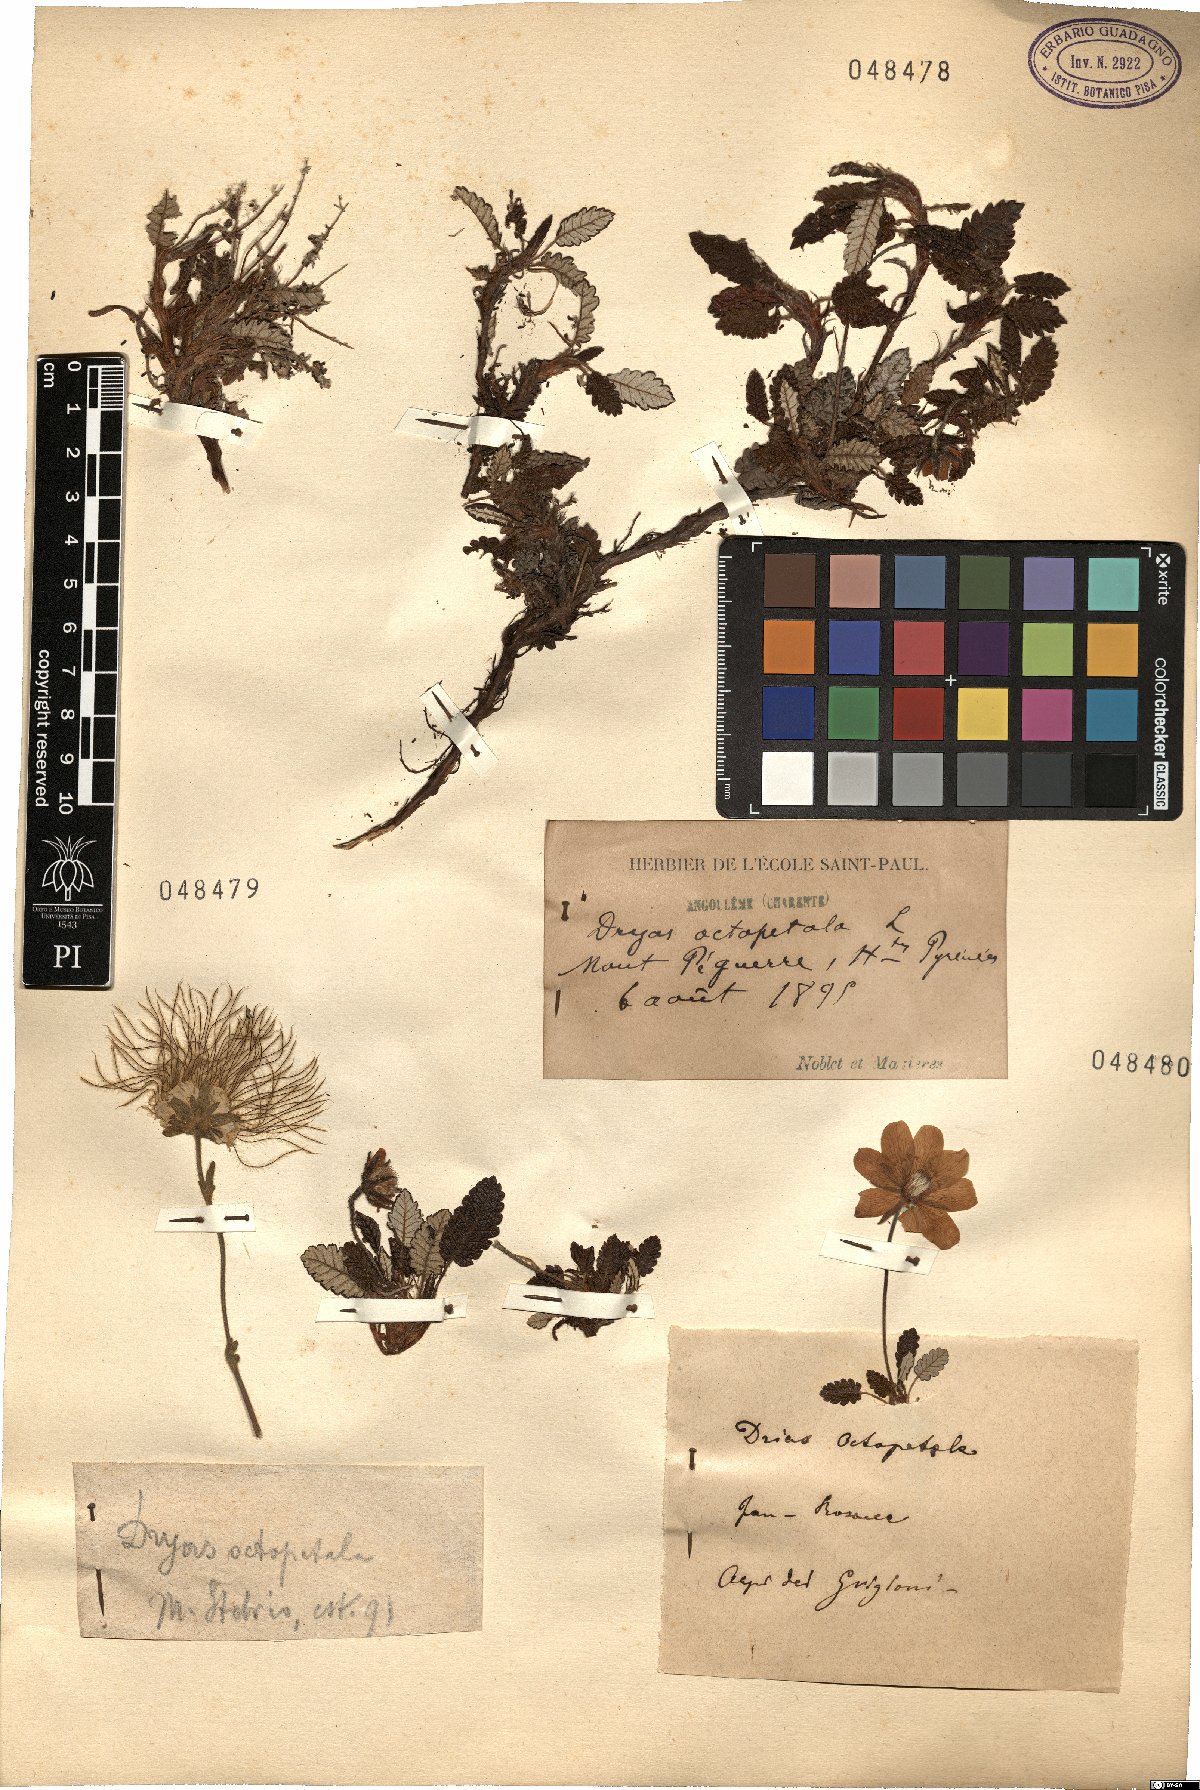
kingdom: Plantae
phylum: Tracheophyta
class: Magnoliopsida
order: Rosales
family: Rosaceae
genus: Dryas
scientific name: Dryas octopetala
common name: Eight-petal mountain-avens
